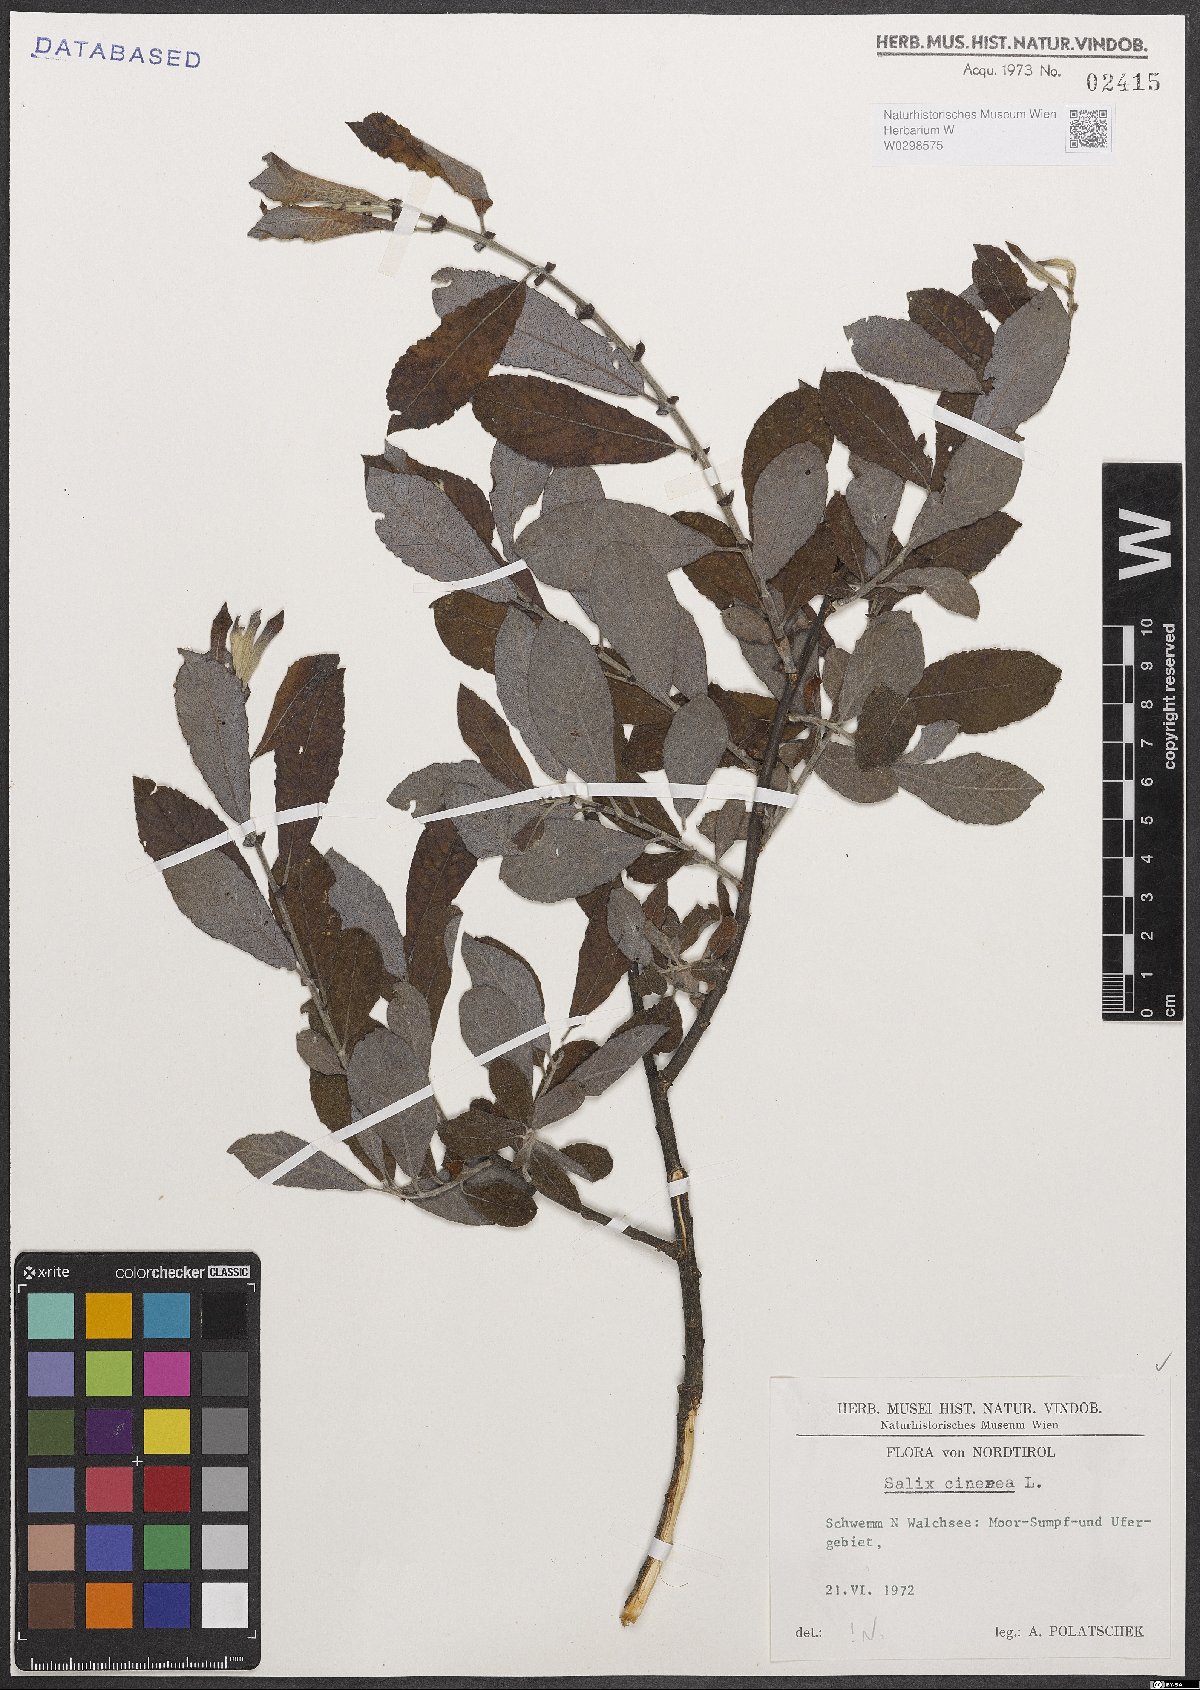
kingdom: Plantae
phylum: Tracheophyta
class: Magnoliopsida
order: Malpighiales
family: Salicaceae
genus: Salix
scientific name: Salix cinerea
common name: Common sallow
